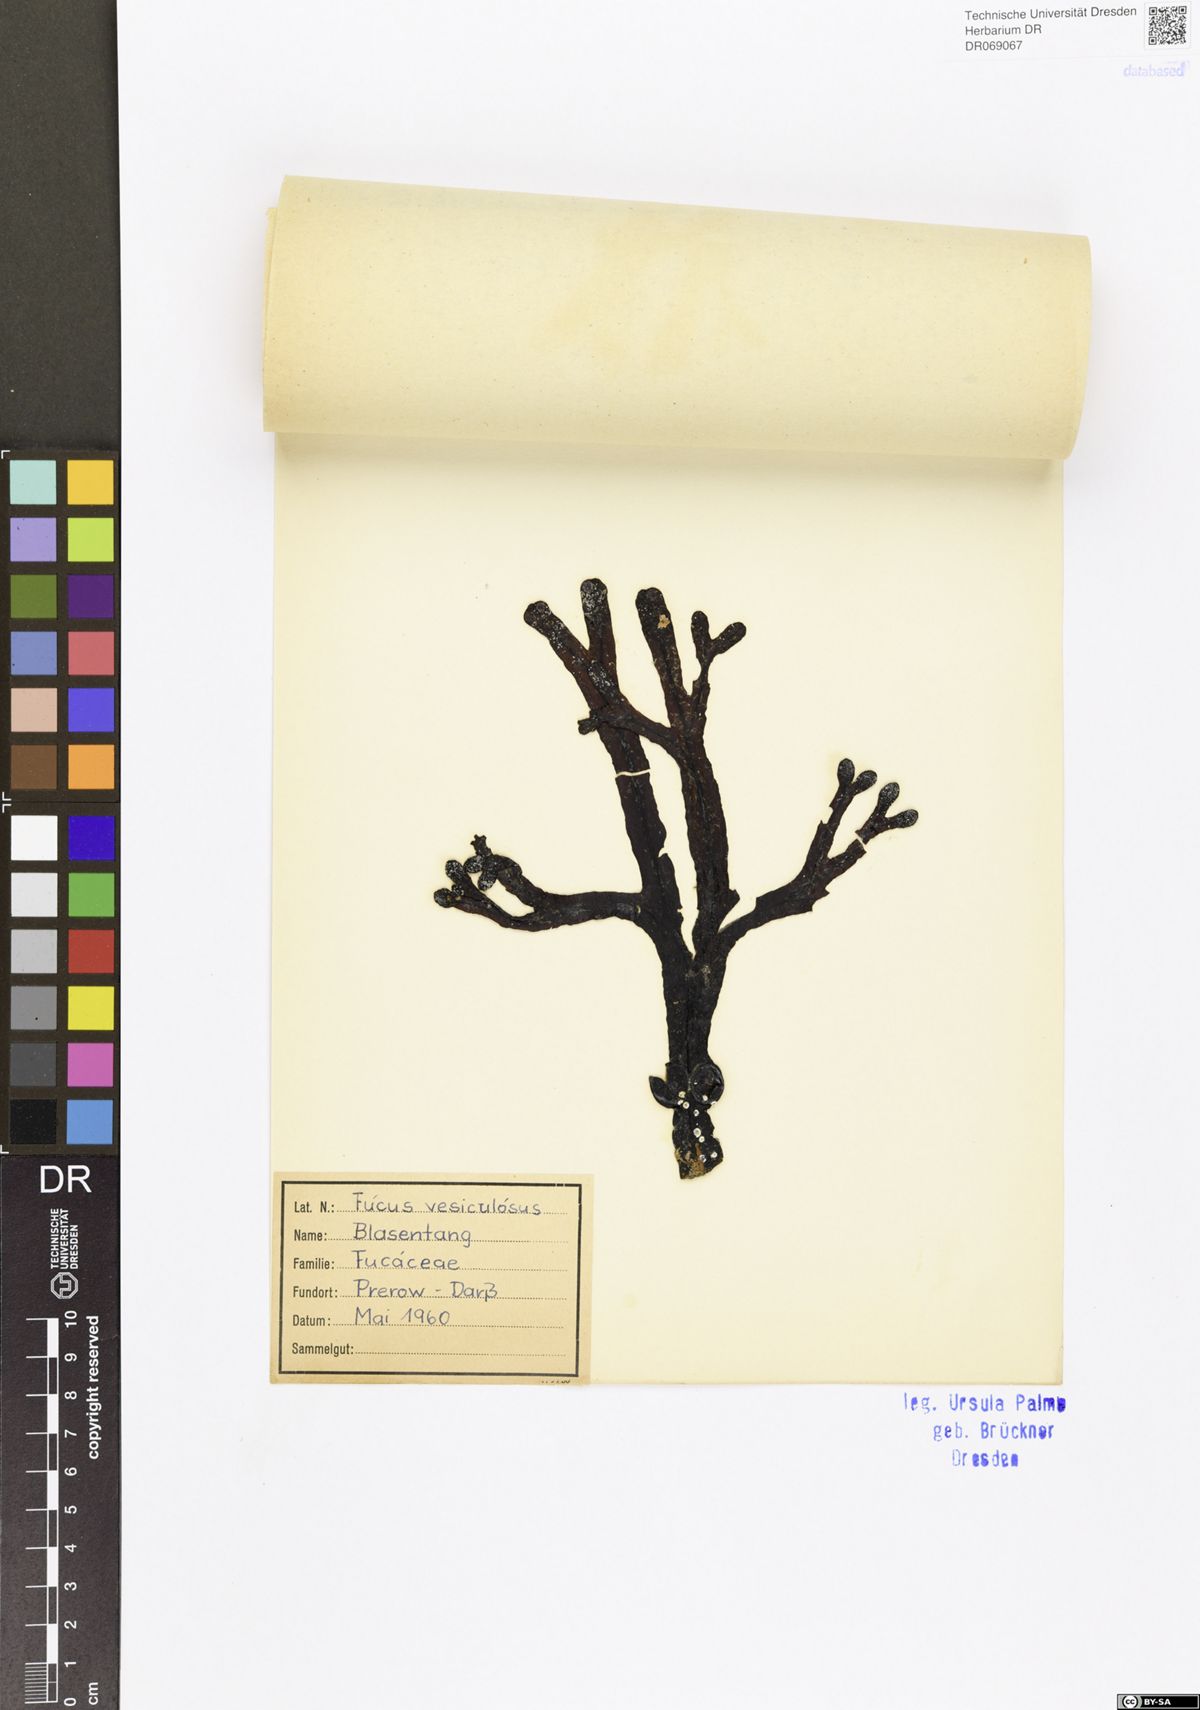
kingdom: Chromista
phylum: Ochrophyta
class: Phaeophyceae
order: Fucales
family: Fucaceae
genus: Fucus
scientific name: Fucus vesiculosus
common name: Bladder wrack
